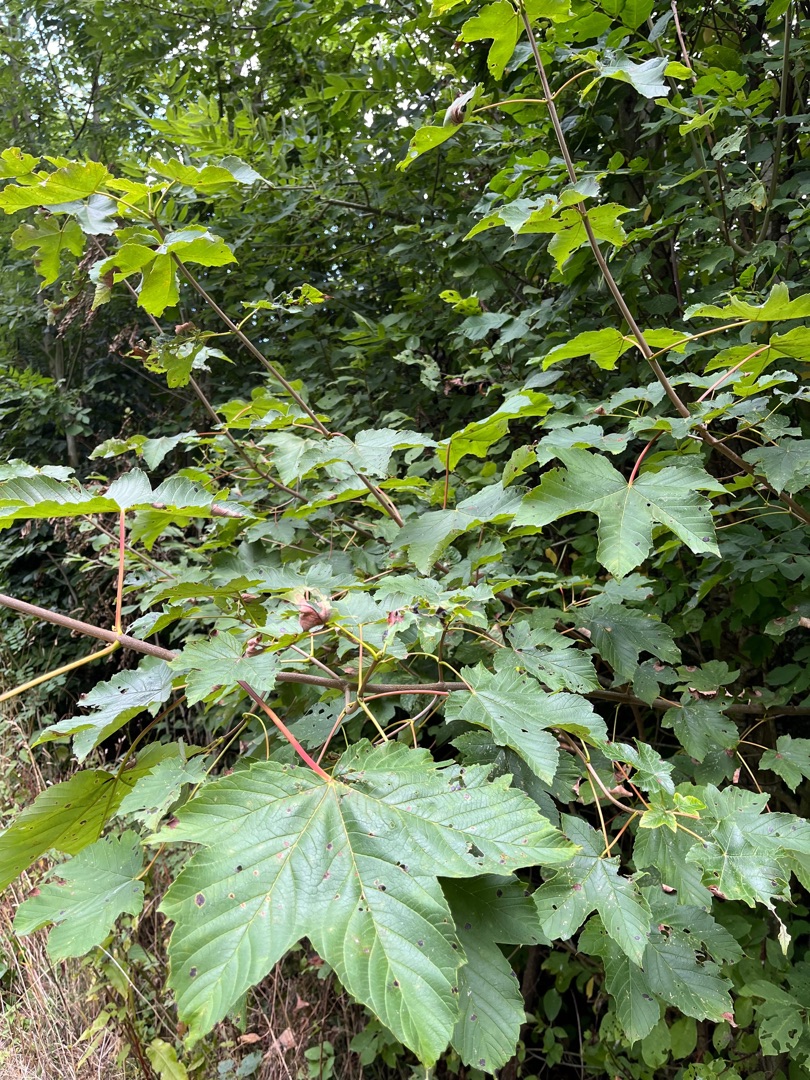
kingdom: Plantae
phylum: Tracheophyta
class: Magnoliopsida
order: Sapindales
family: Sapindaceae
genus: Acer
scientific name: Acer pseudoplatanus
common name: Ahorn
